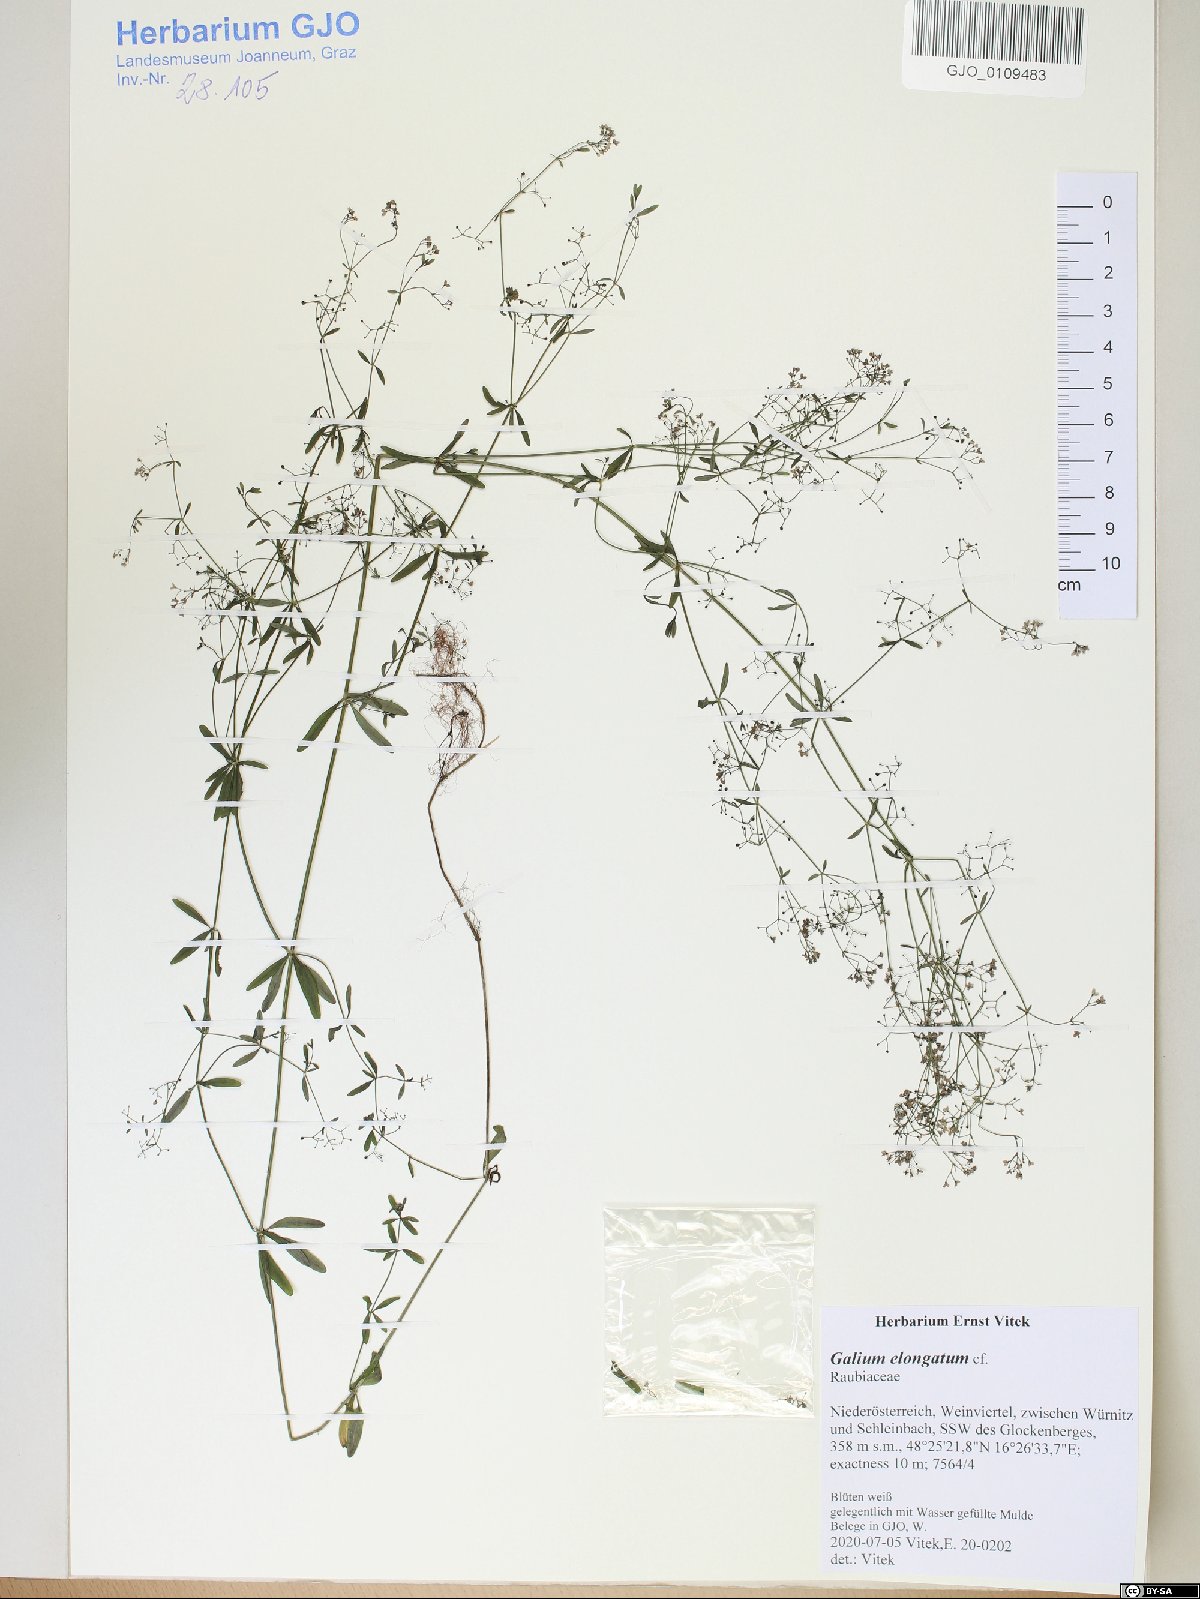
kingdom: Plantae
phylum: Tracheophyta
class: Magnoliopsida
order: Gentianales
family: Rubiaceae
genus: Galium
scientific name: Galium elongatum
